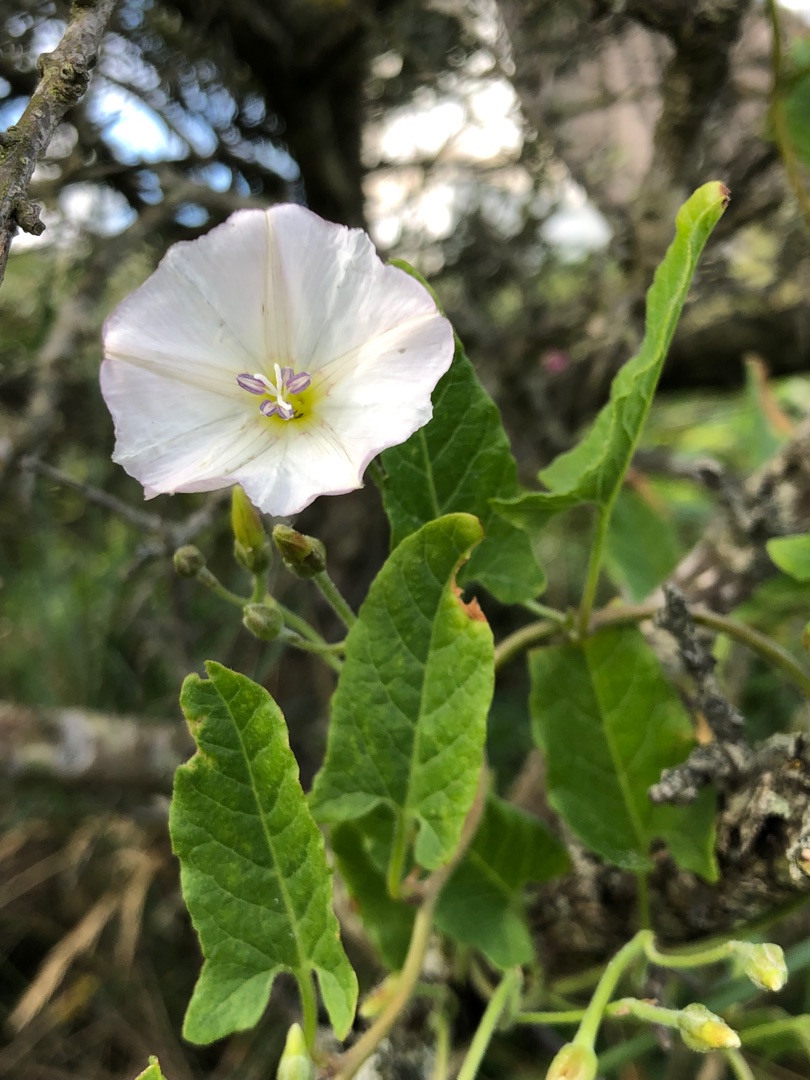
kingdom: Plantae
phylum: Tracheophyta
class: Magnoliopsida
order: Solanales
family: Convolvulaceae
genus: Convolvulus
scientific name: Convolvulus arvensis
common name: Ager-snerle
